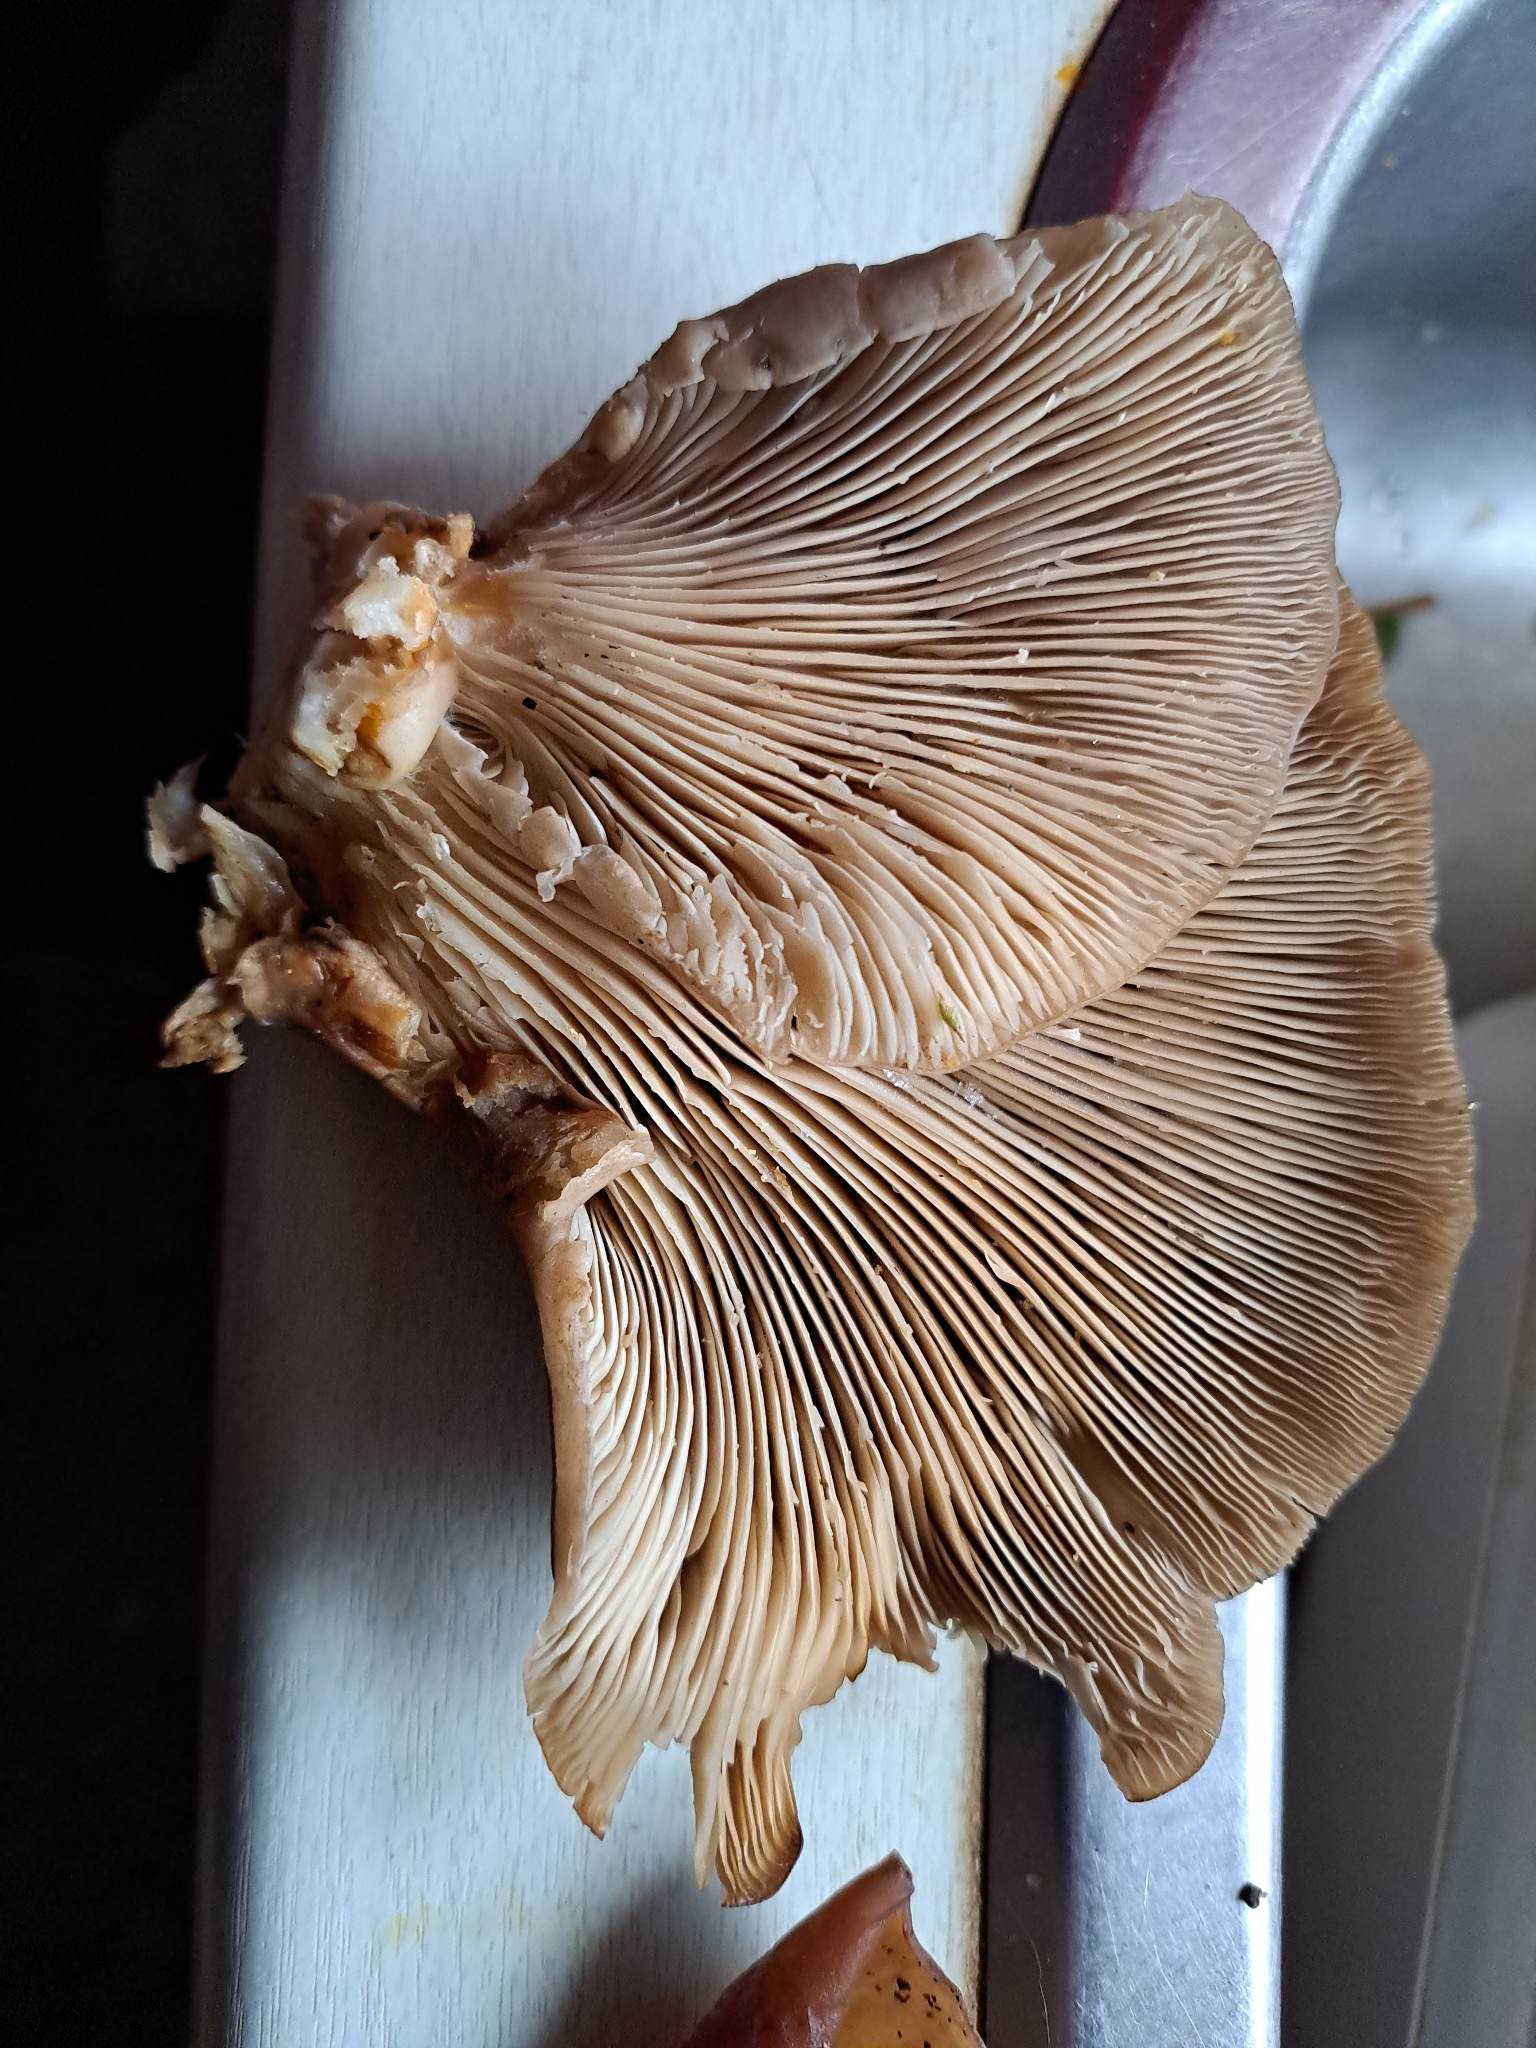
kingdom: Fungi
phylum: Basidiomycota
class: Agaricomycetes
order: Agaricales
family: Pleurotaceae
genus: Pleurotus
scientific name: Pleurotus ostreatus
